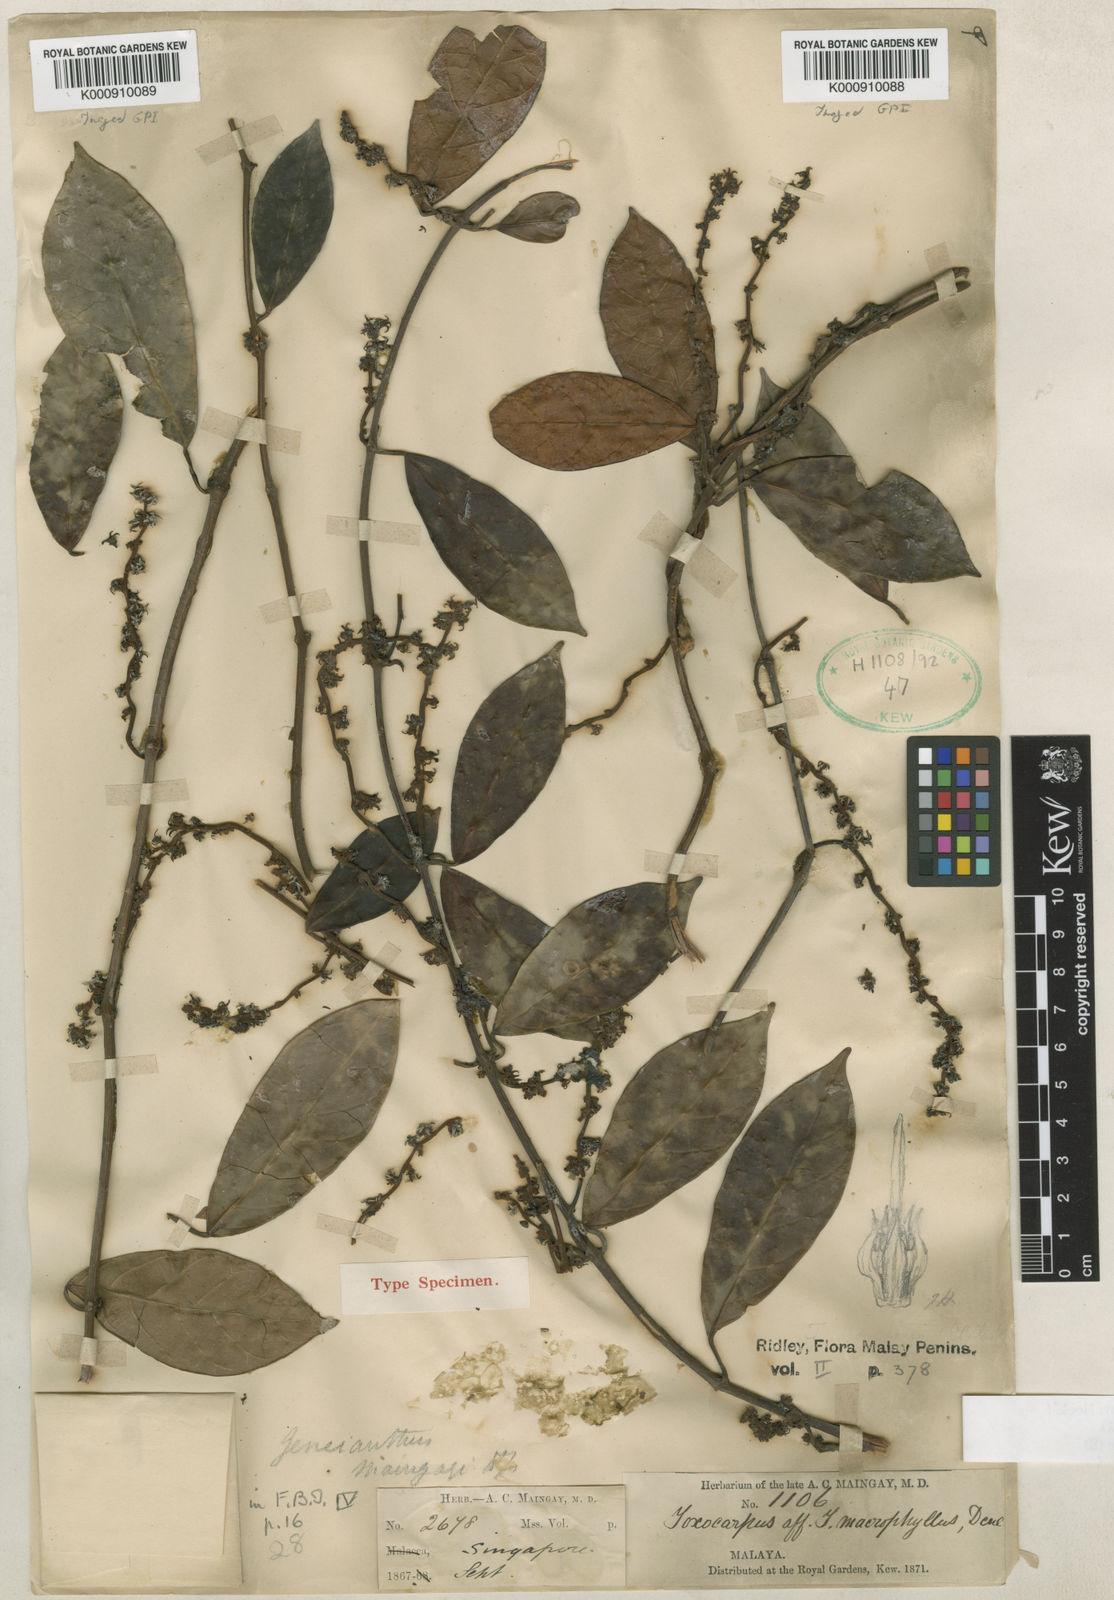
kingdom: Plantae
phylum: Tracheophyta
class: Magnoliopsida
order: Gentianales
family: Apocynaceae
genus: Secamone
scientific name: Secamone maingayi
